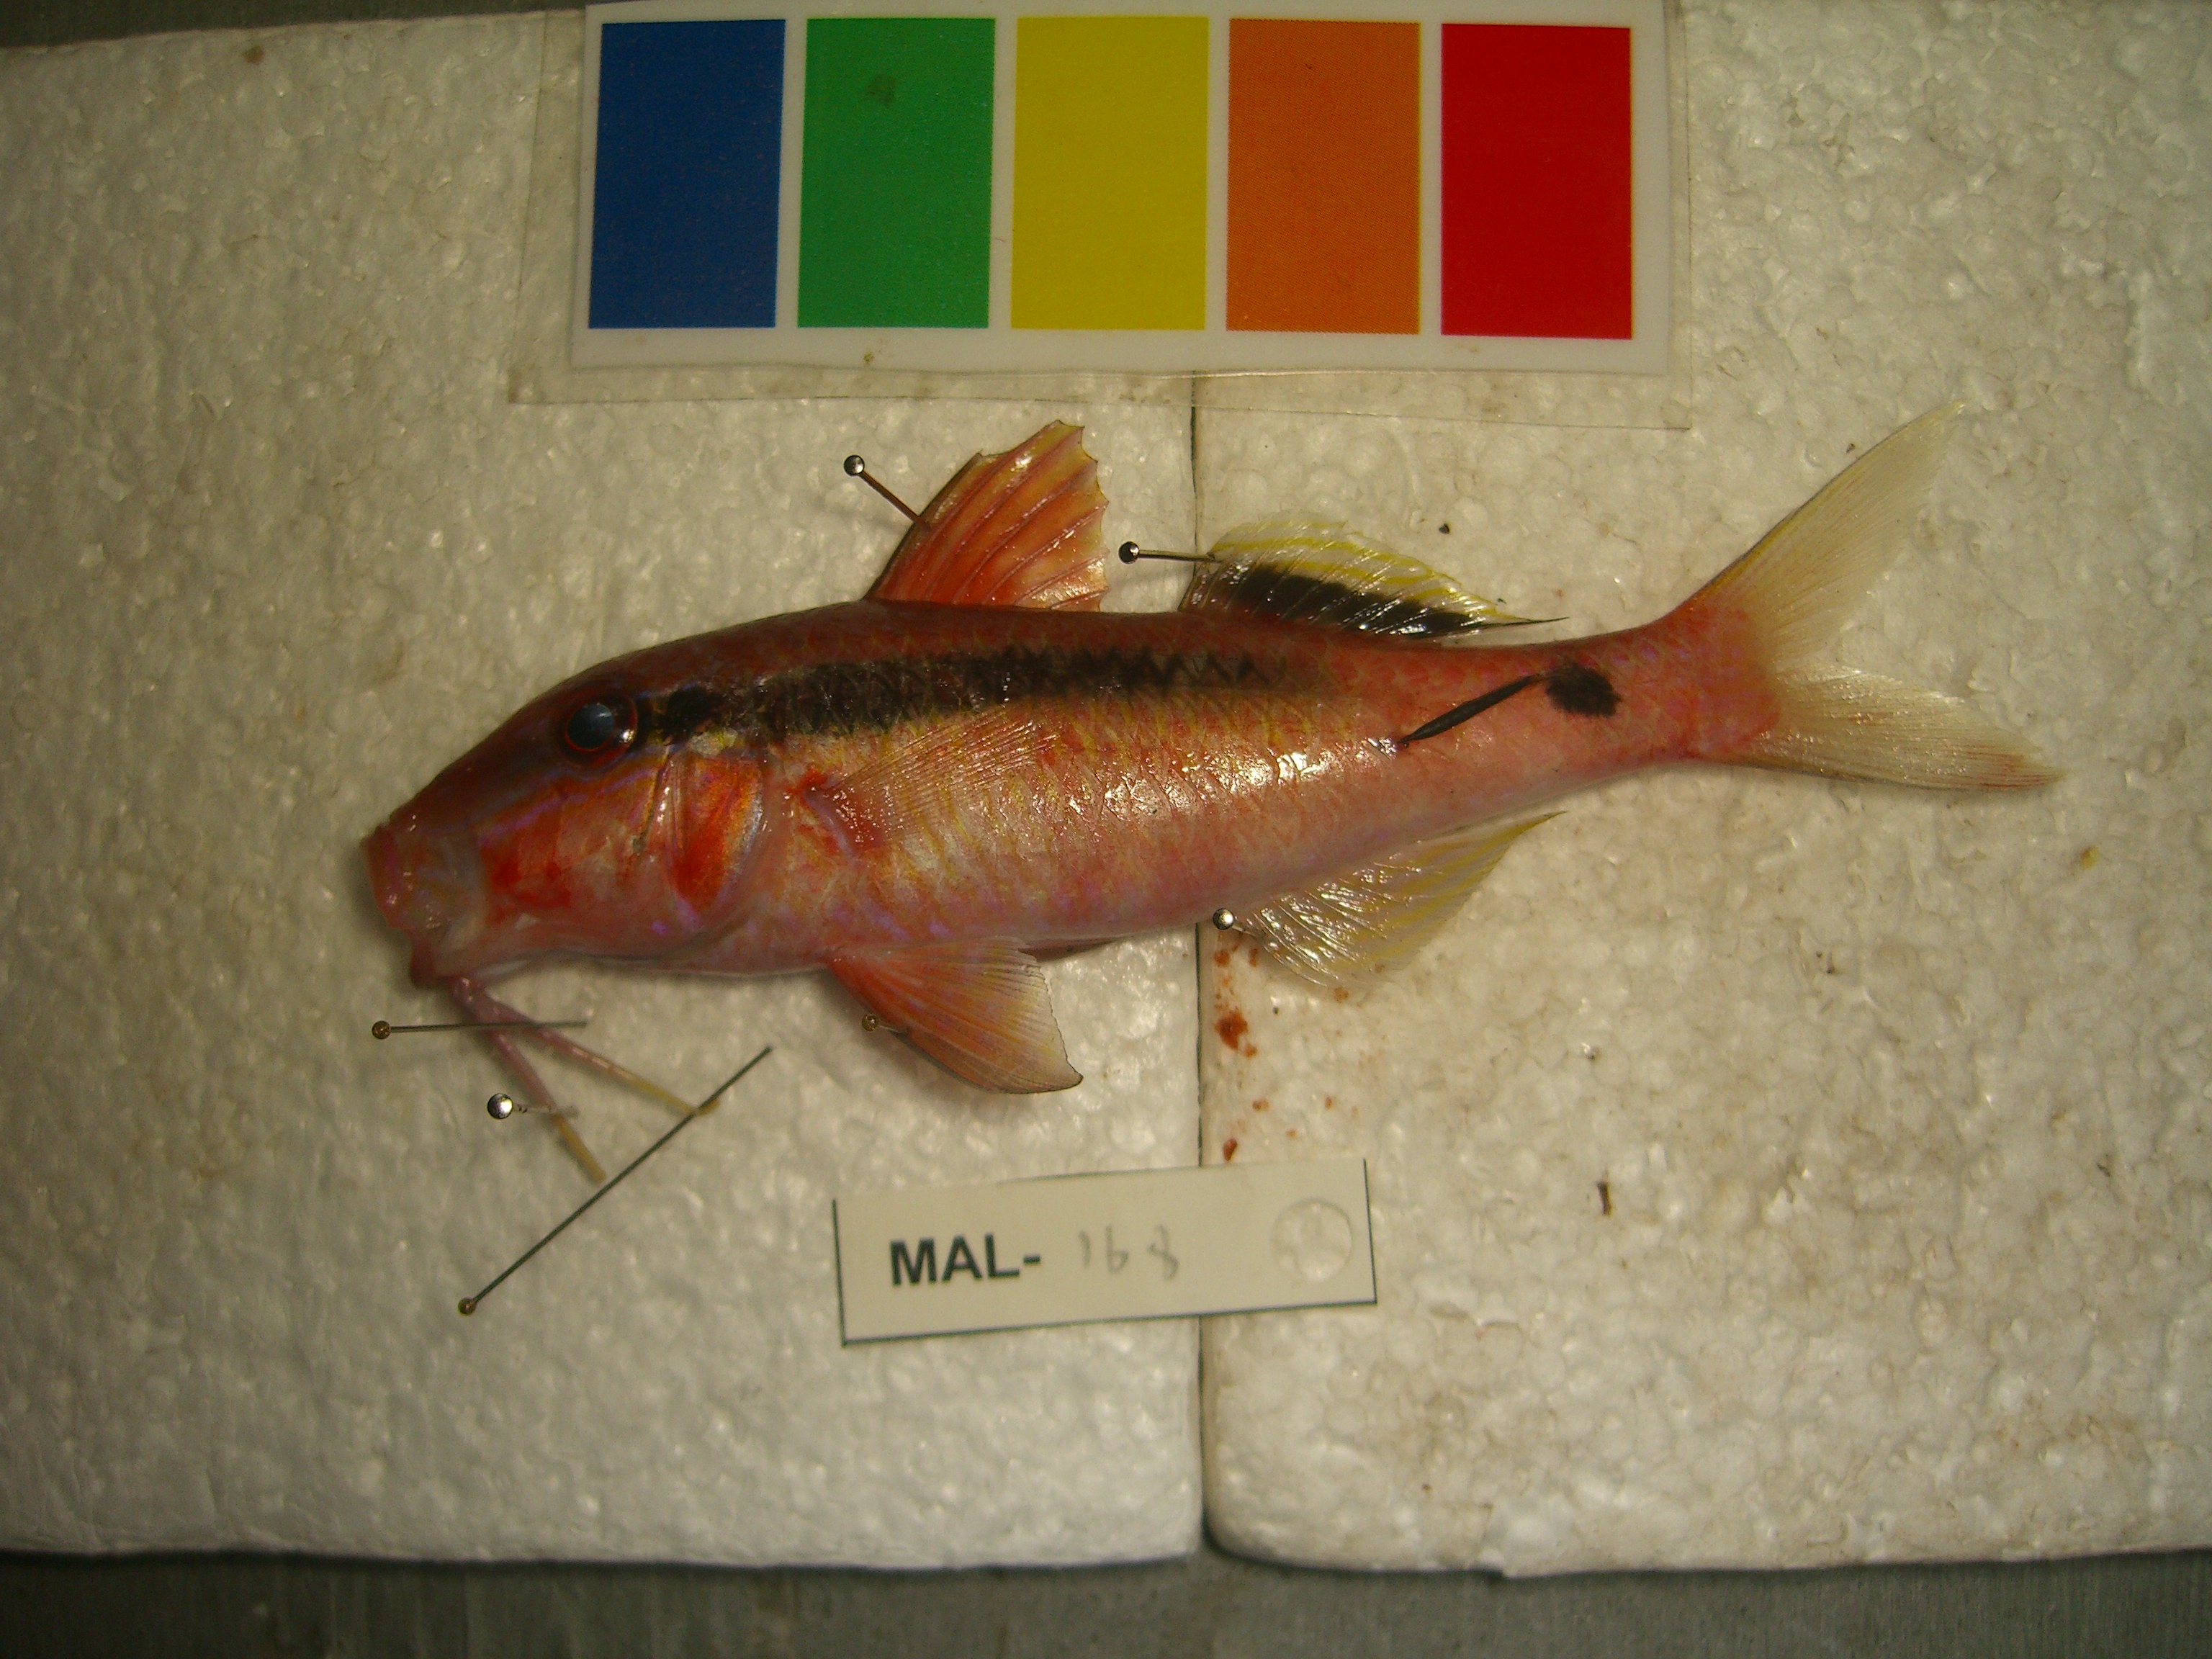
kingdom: Animalia
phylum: Chordata
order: Perciformes
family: Mullidae
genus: Parupeneus
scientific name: Parupeneus macronemus
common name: Long-barbel goatfish
